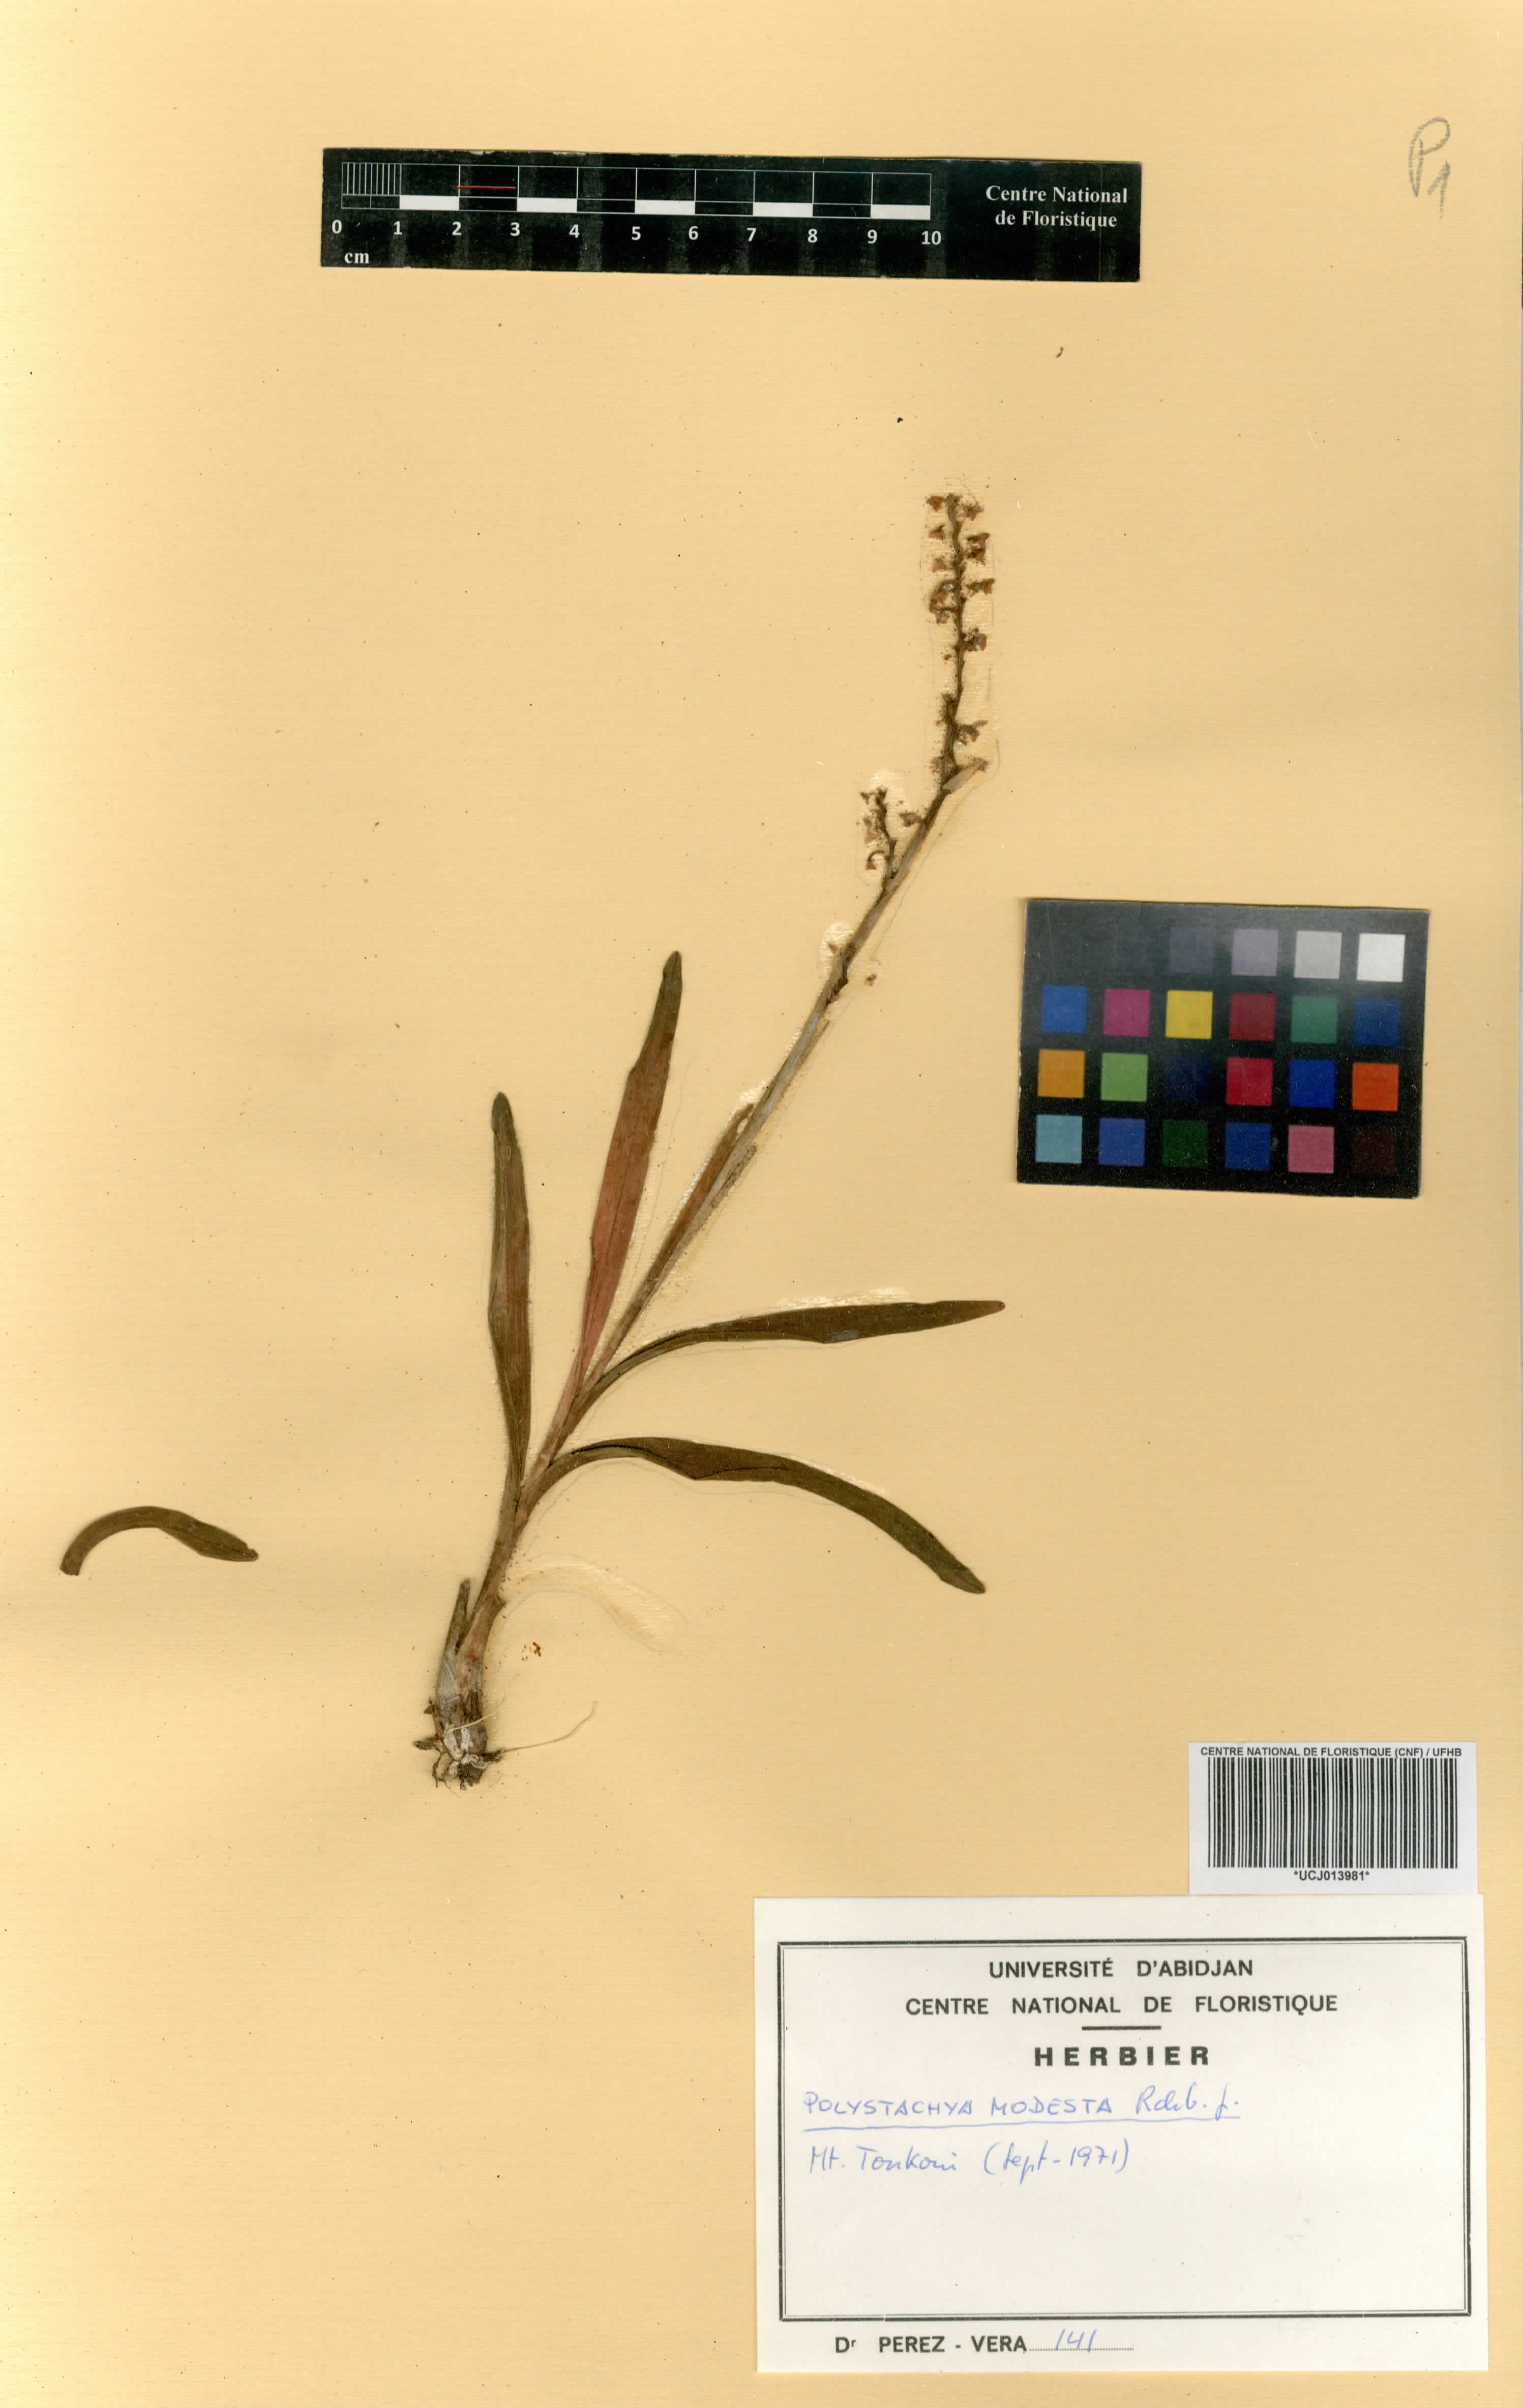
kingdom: Plantae
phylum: Tracheophyta
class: Liliopsida
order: Asparagales
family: Orchidaceae
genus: Polystachya
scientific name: Polystachya modesta
